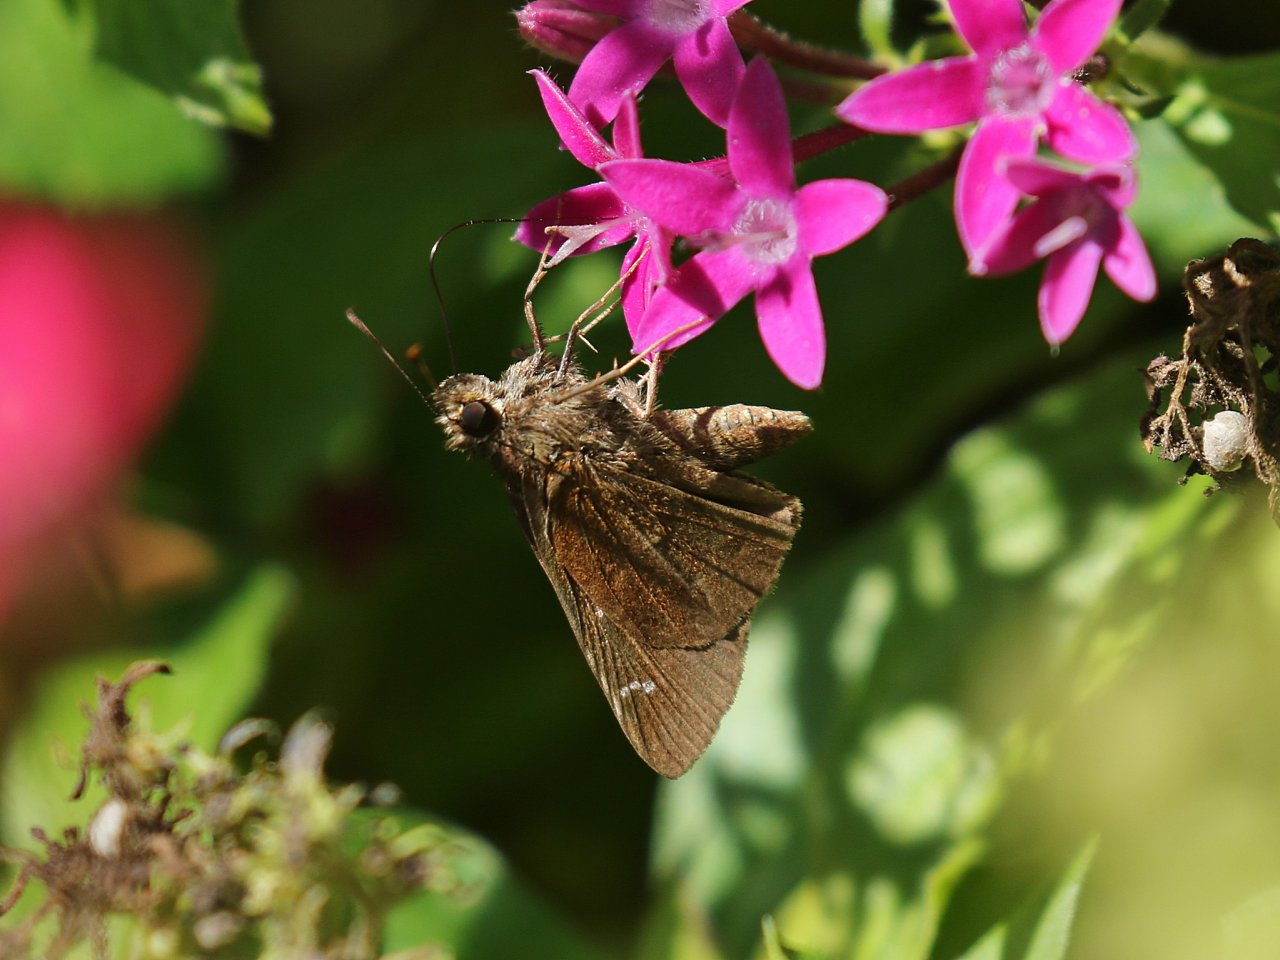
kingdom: Animalia
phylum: Arthropoda
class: Insecta
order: Lepidoptera
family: Hesperiidae
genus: Lerema
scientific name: Lerema accius
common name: Clouded Skipper
